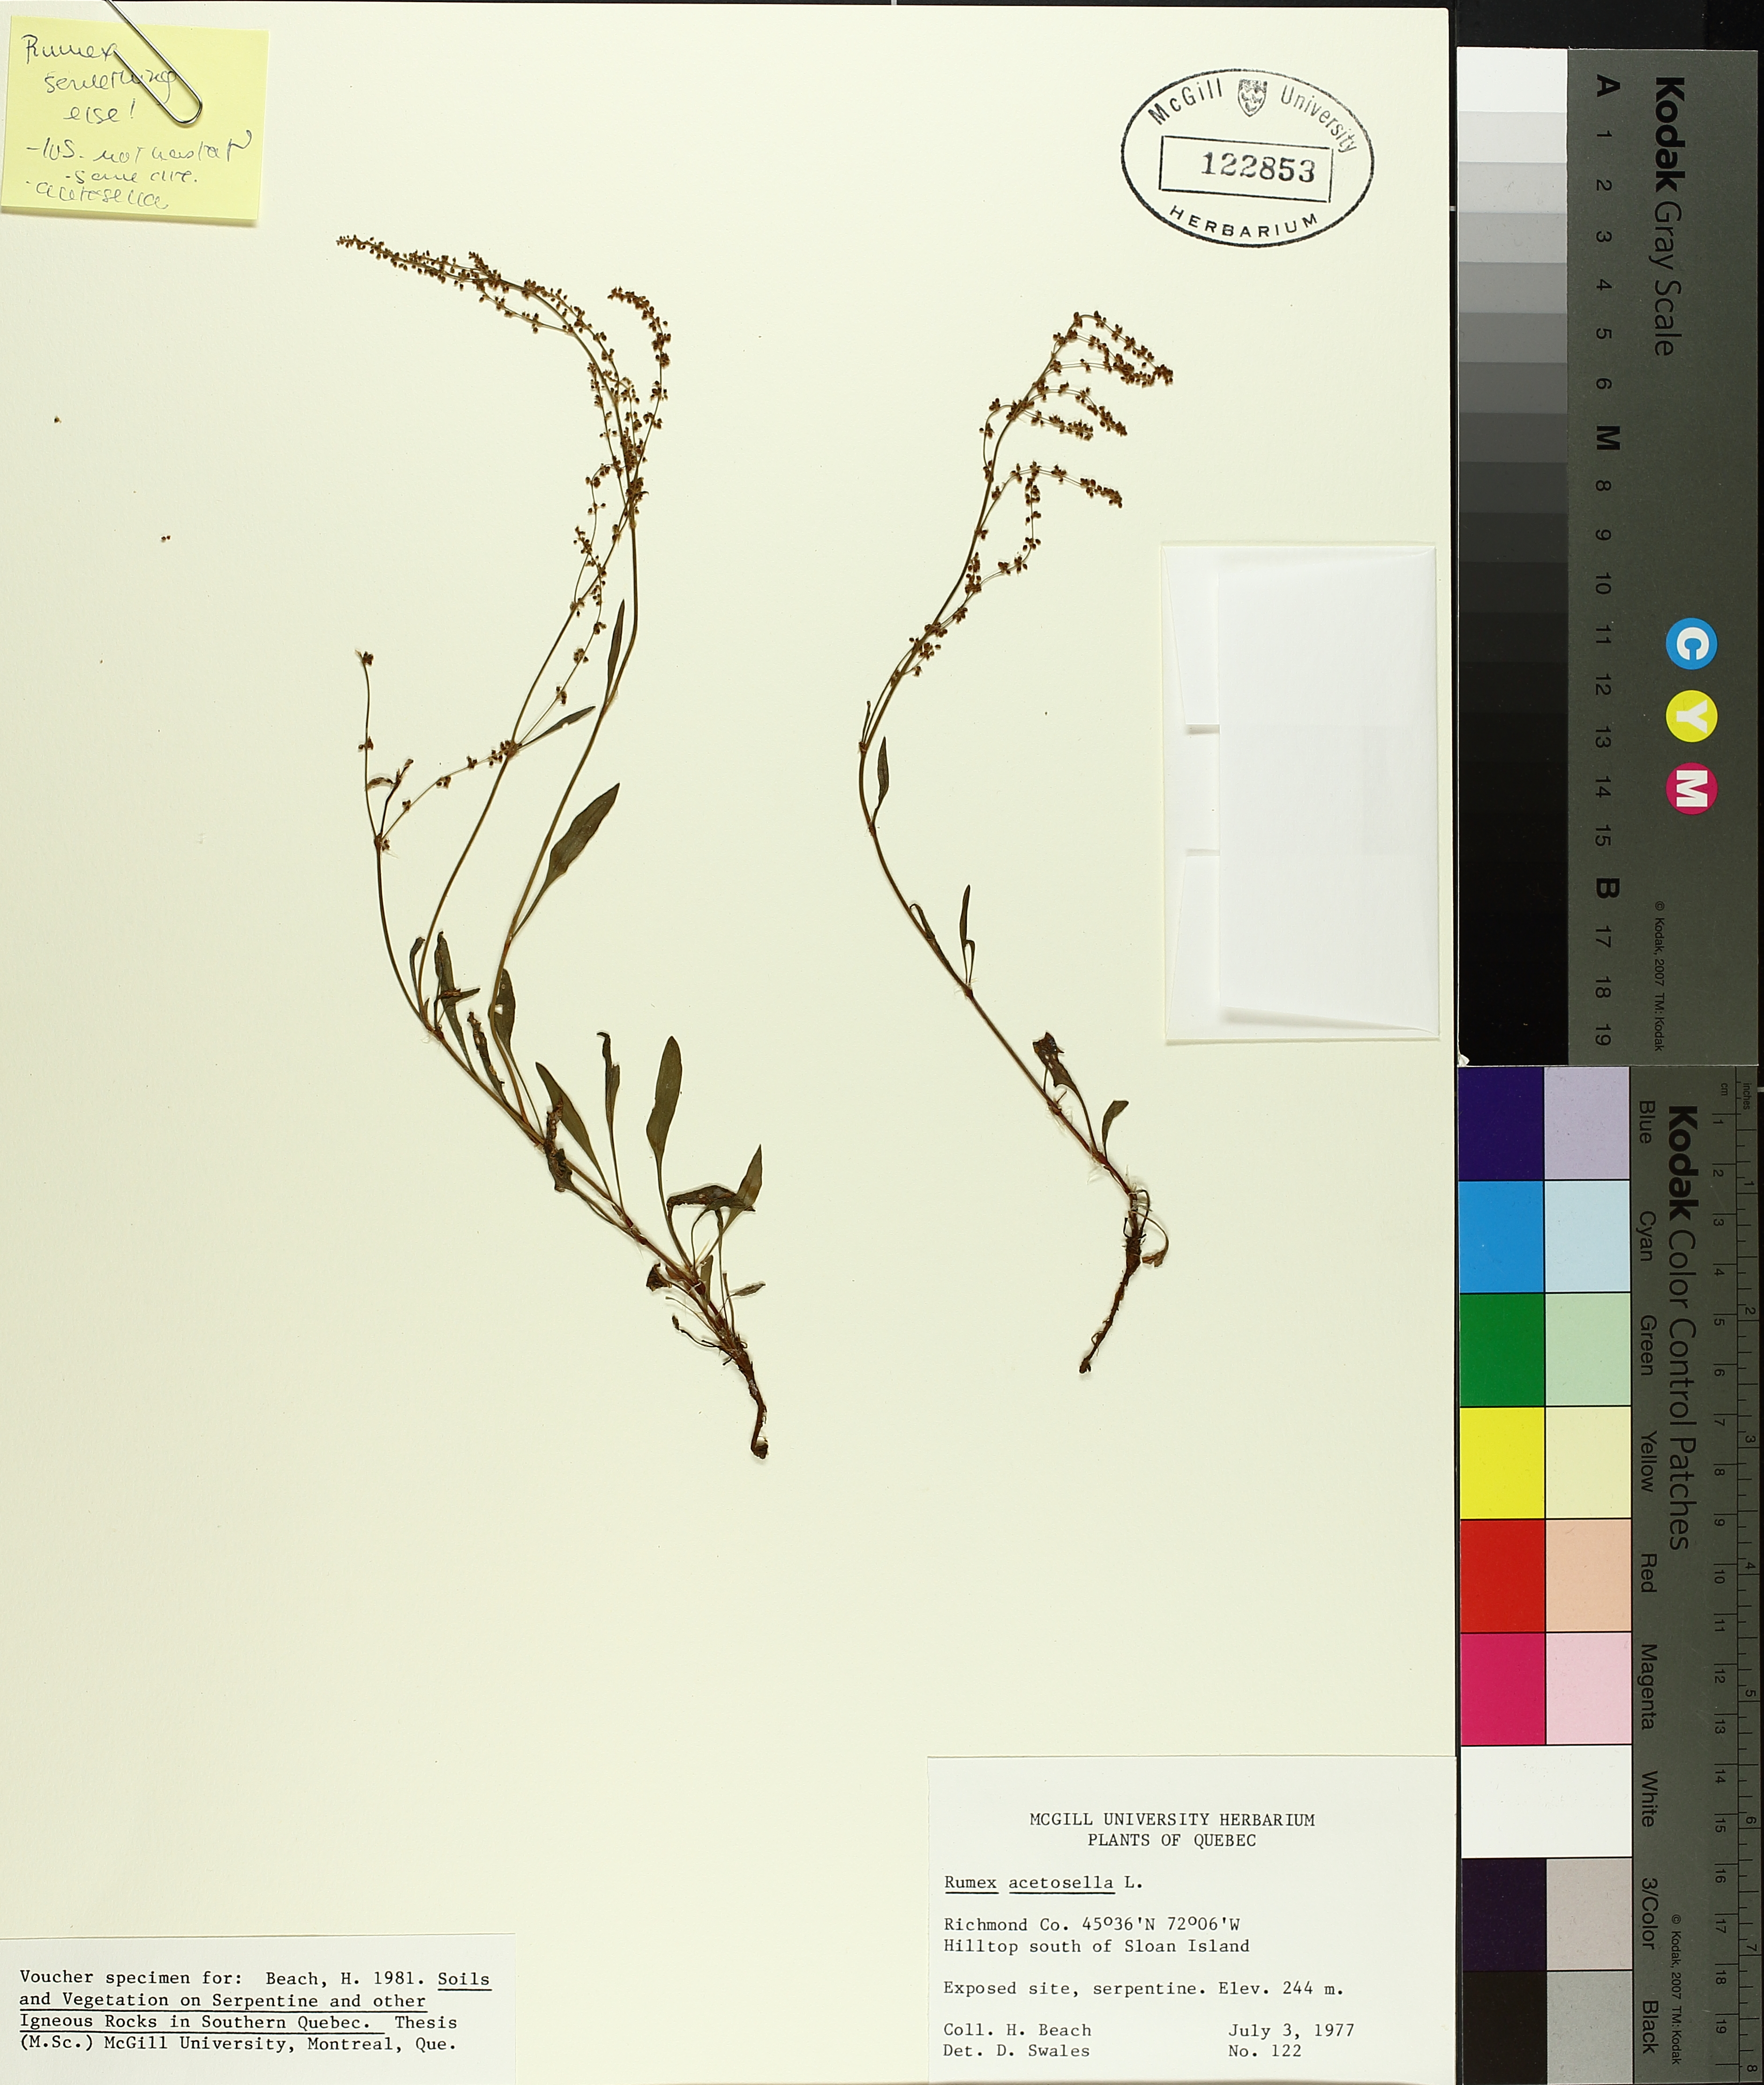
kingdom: Plantae
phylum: Tracheophyta
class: Magnoliopsida
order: Caryophyllales
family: Polygonaceae
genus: Rumex
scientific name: Rumex acetosella
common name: Common sheep sorrel
